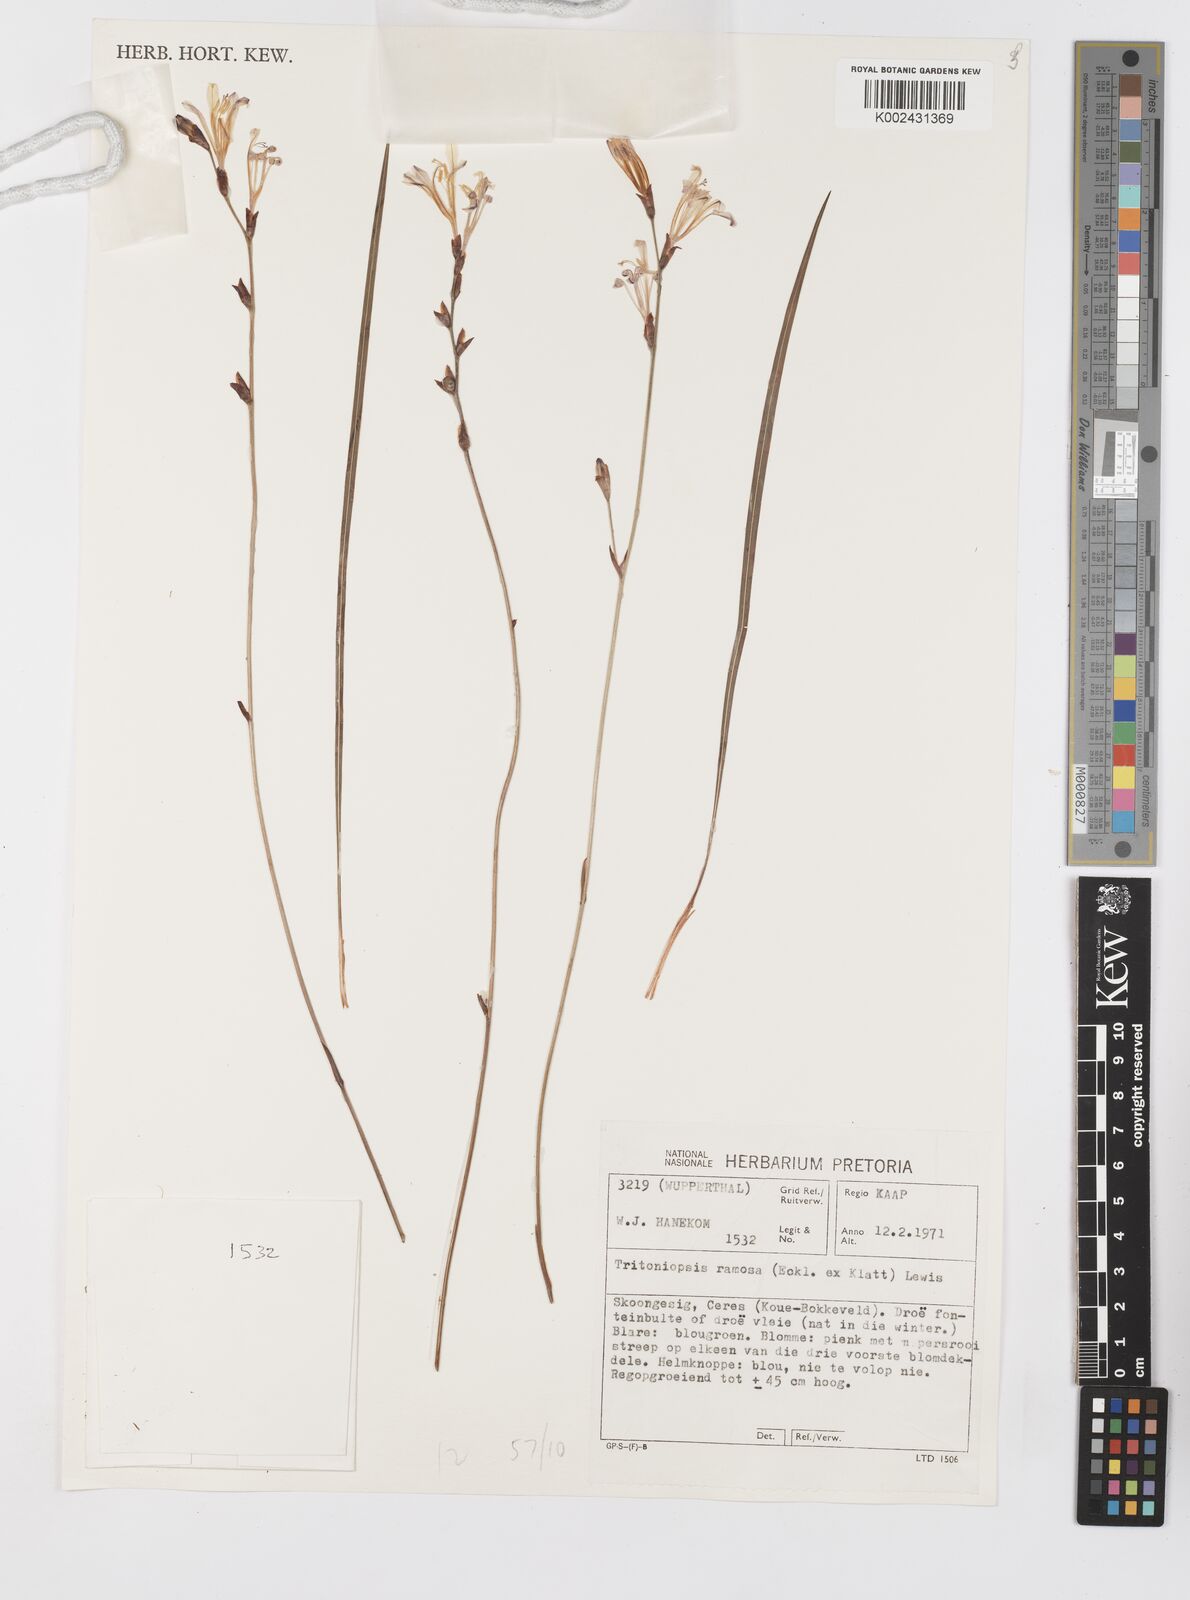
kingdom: Plantae
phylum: Tracheophyta
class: Liliopsida
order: Asparagales
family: Iridaceae
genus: Tritoniopsis
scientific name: Tritoniopsis ramosa
